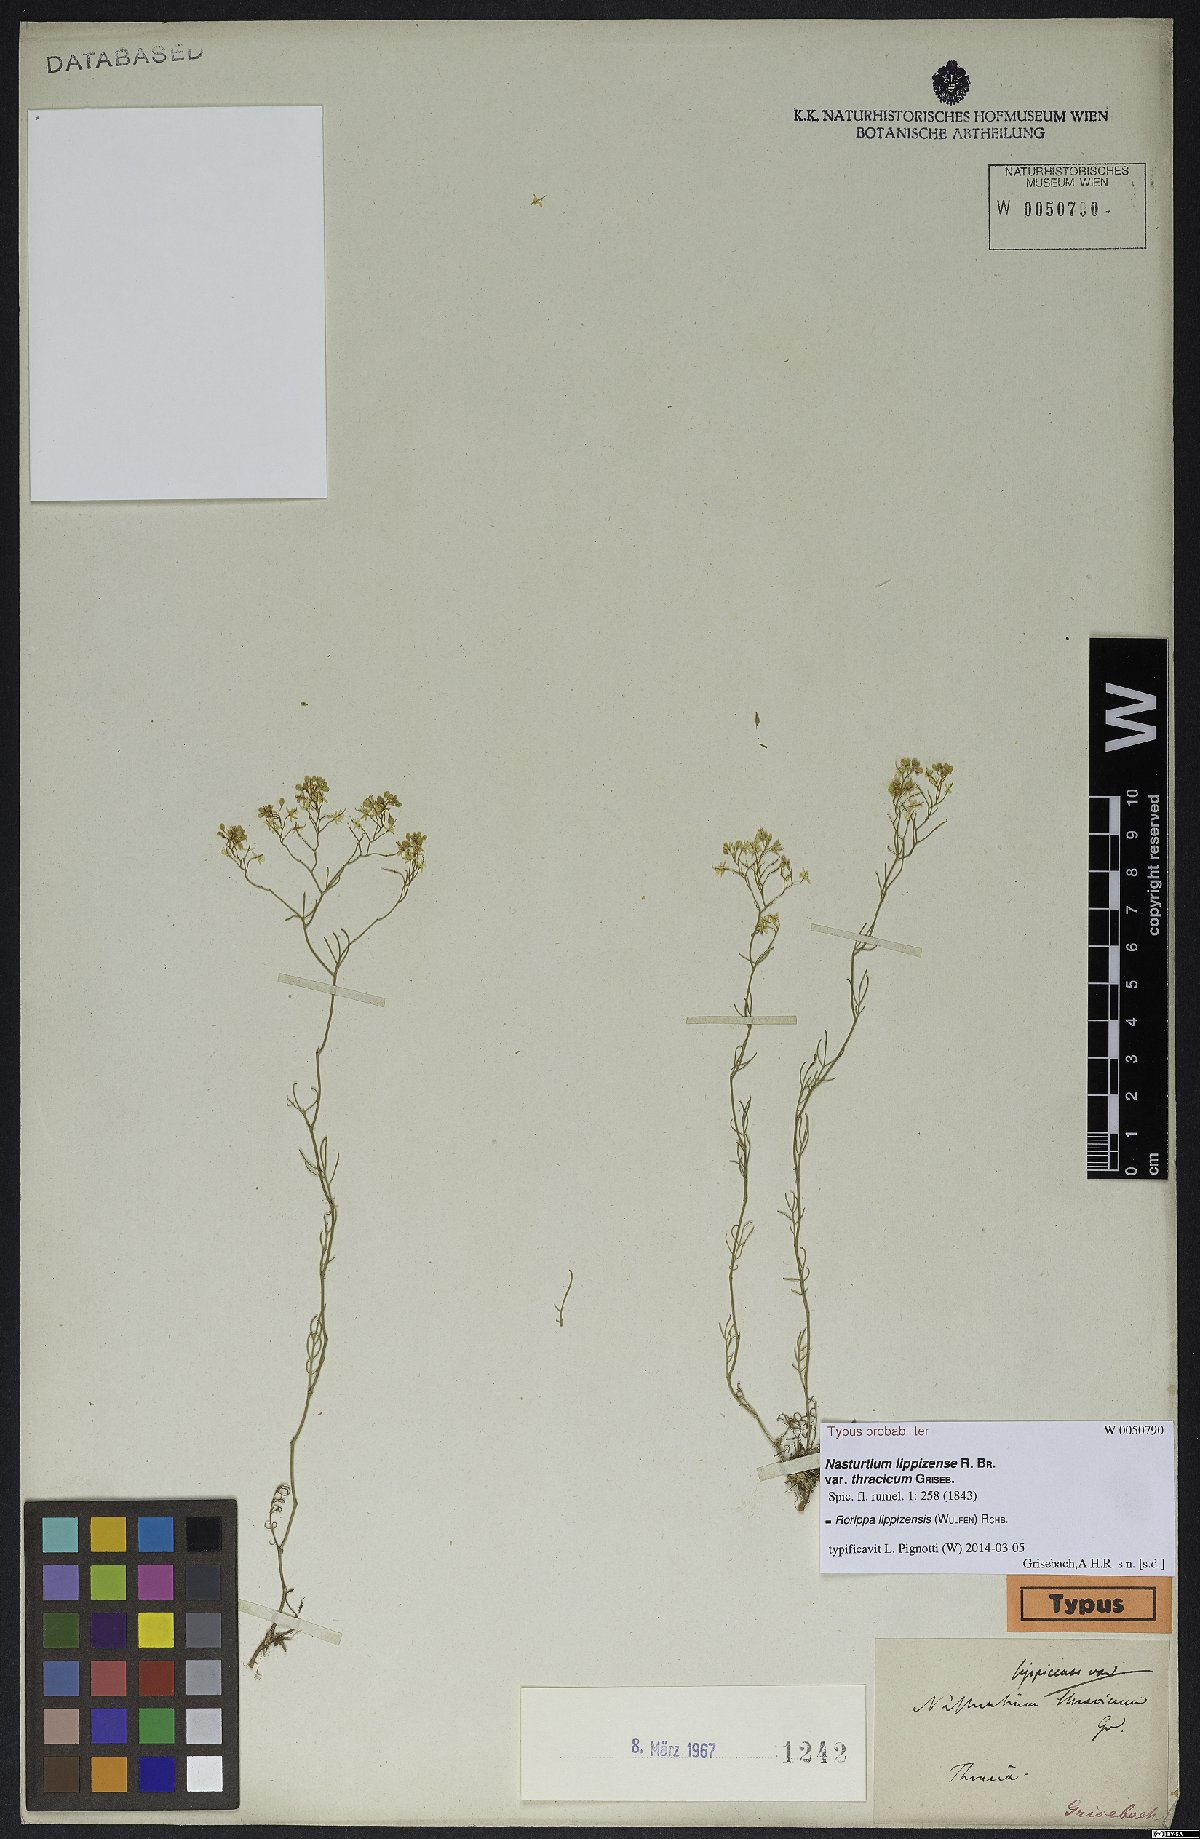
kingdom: Plantae
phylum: Tracheophyta
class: Magnoliopsida
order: Brassicales
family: Brassicaceae
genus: Rorippa
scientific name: Rorippa lippizensis
